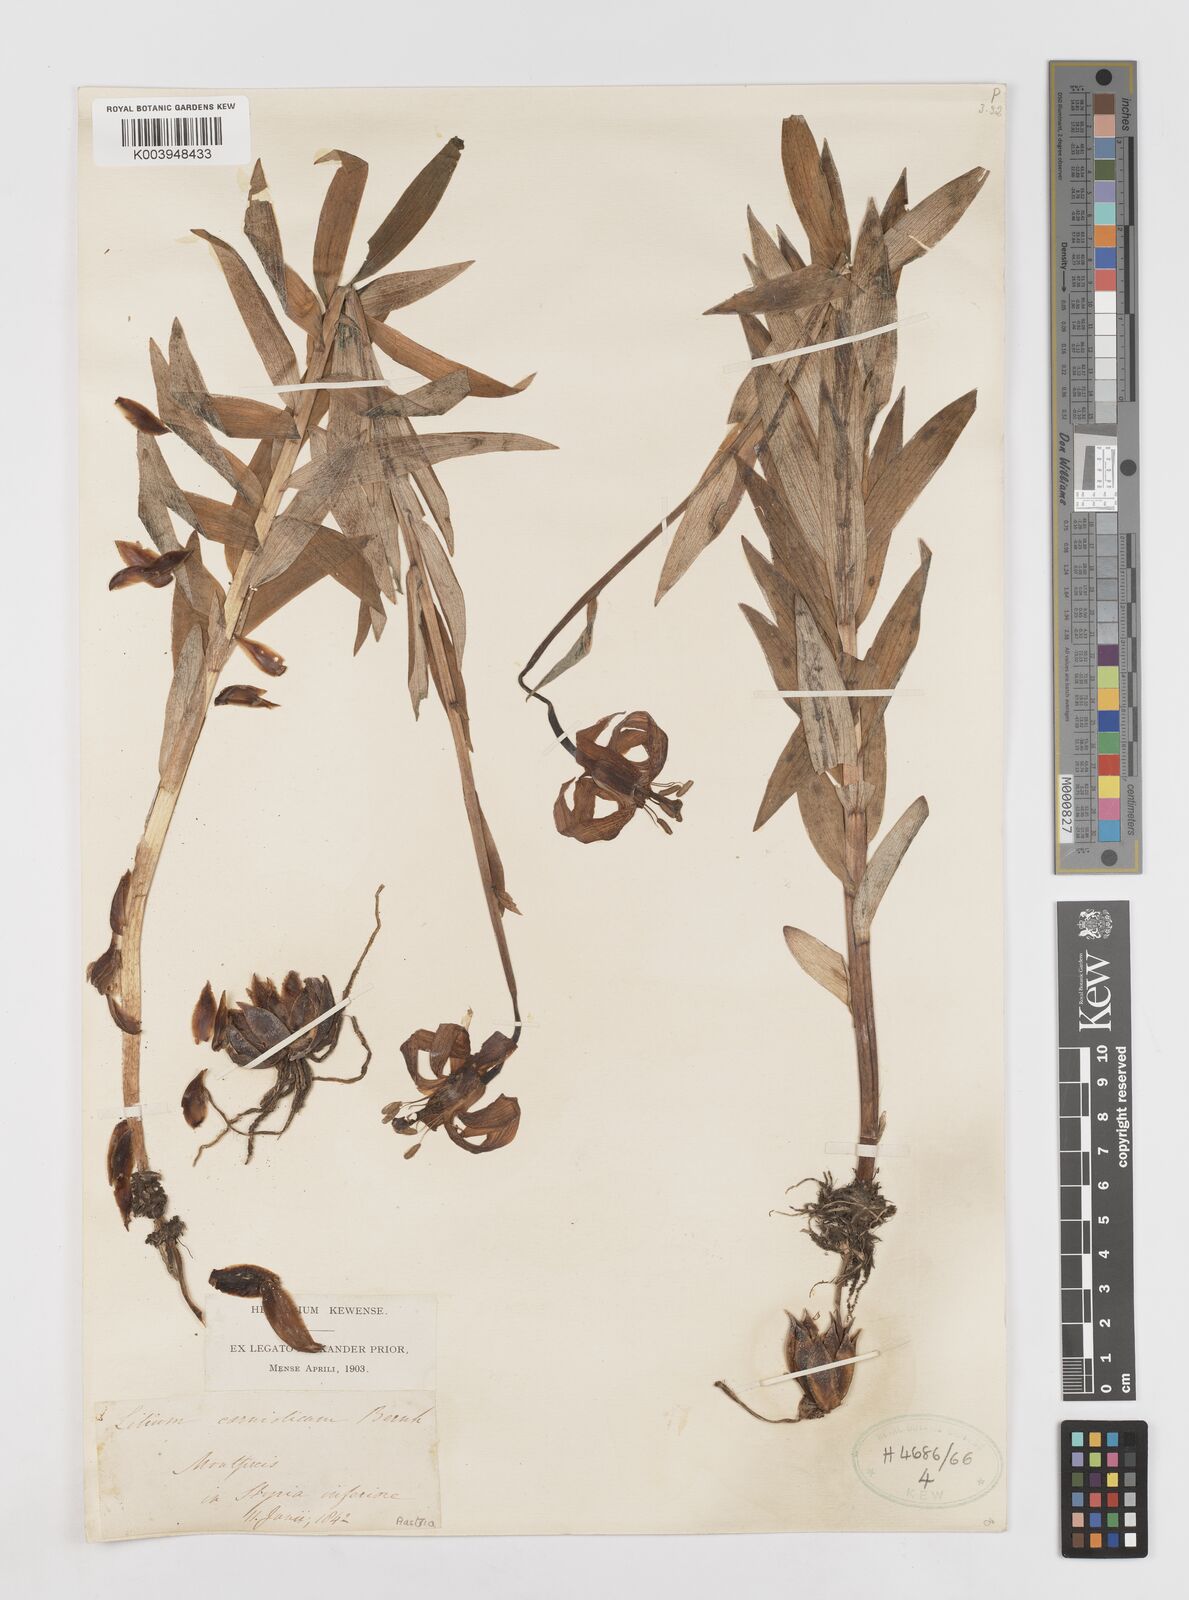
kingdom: Plantae
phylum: Tracheophyta
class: Liliopsida
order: Liliales
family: Liliaceae
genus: Lilium
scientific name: Lilium carniolicum
